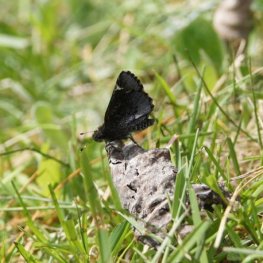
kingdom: Animalia
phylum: Arthropoda
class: Insecta
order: Lepidoptera
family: Hesperiidae
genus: Mastor
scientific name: Mastor vialis
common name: Common Roadside-Skipper
